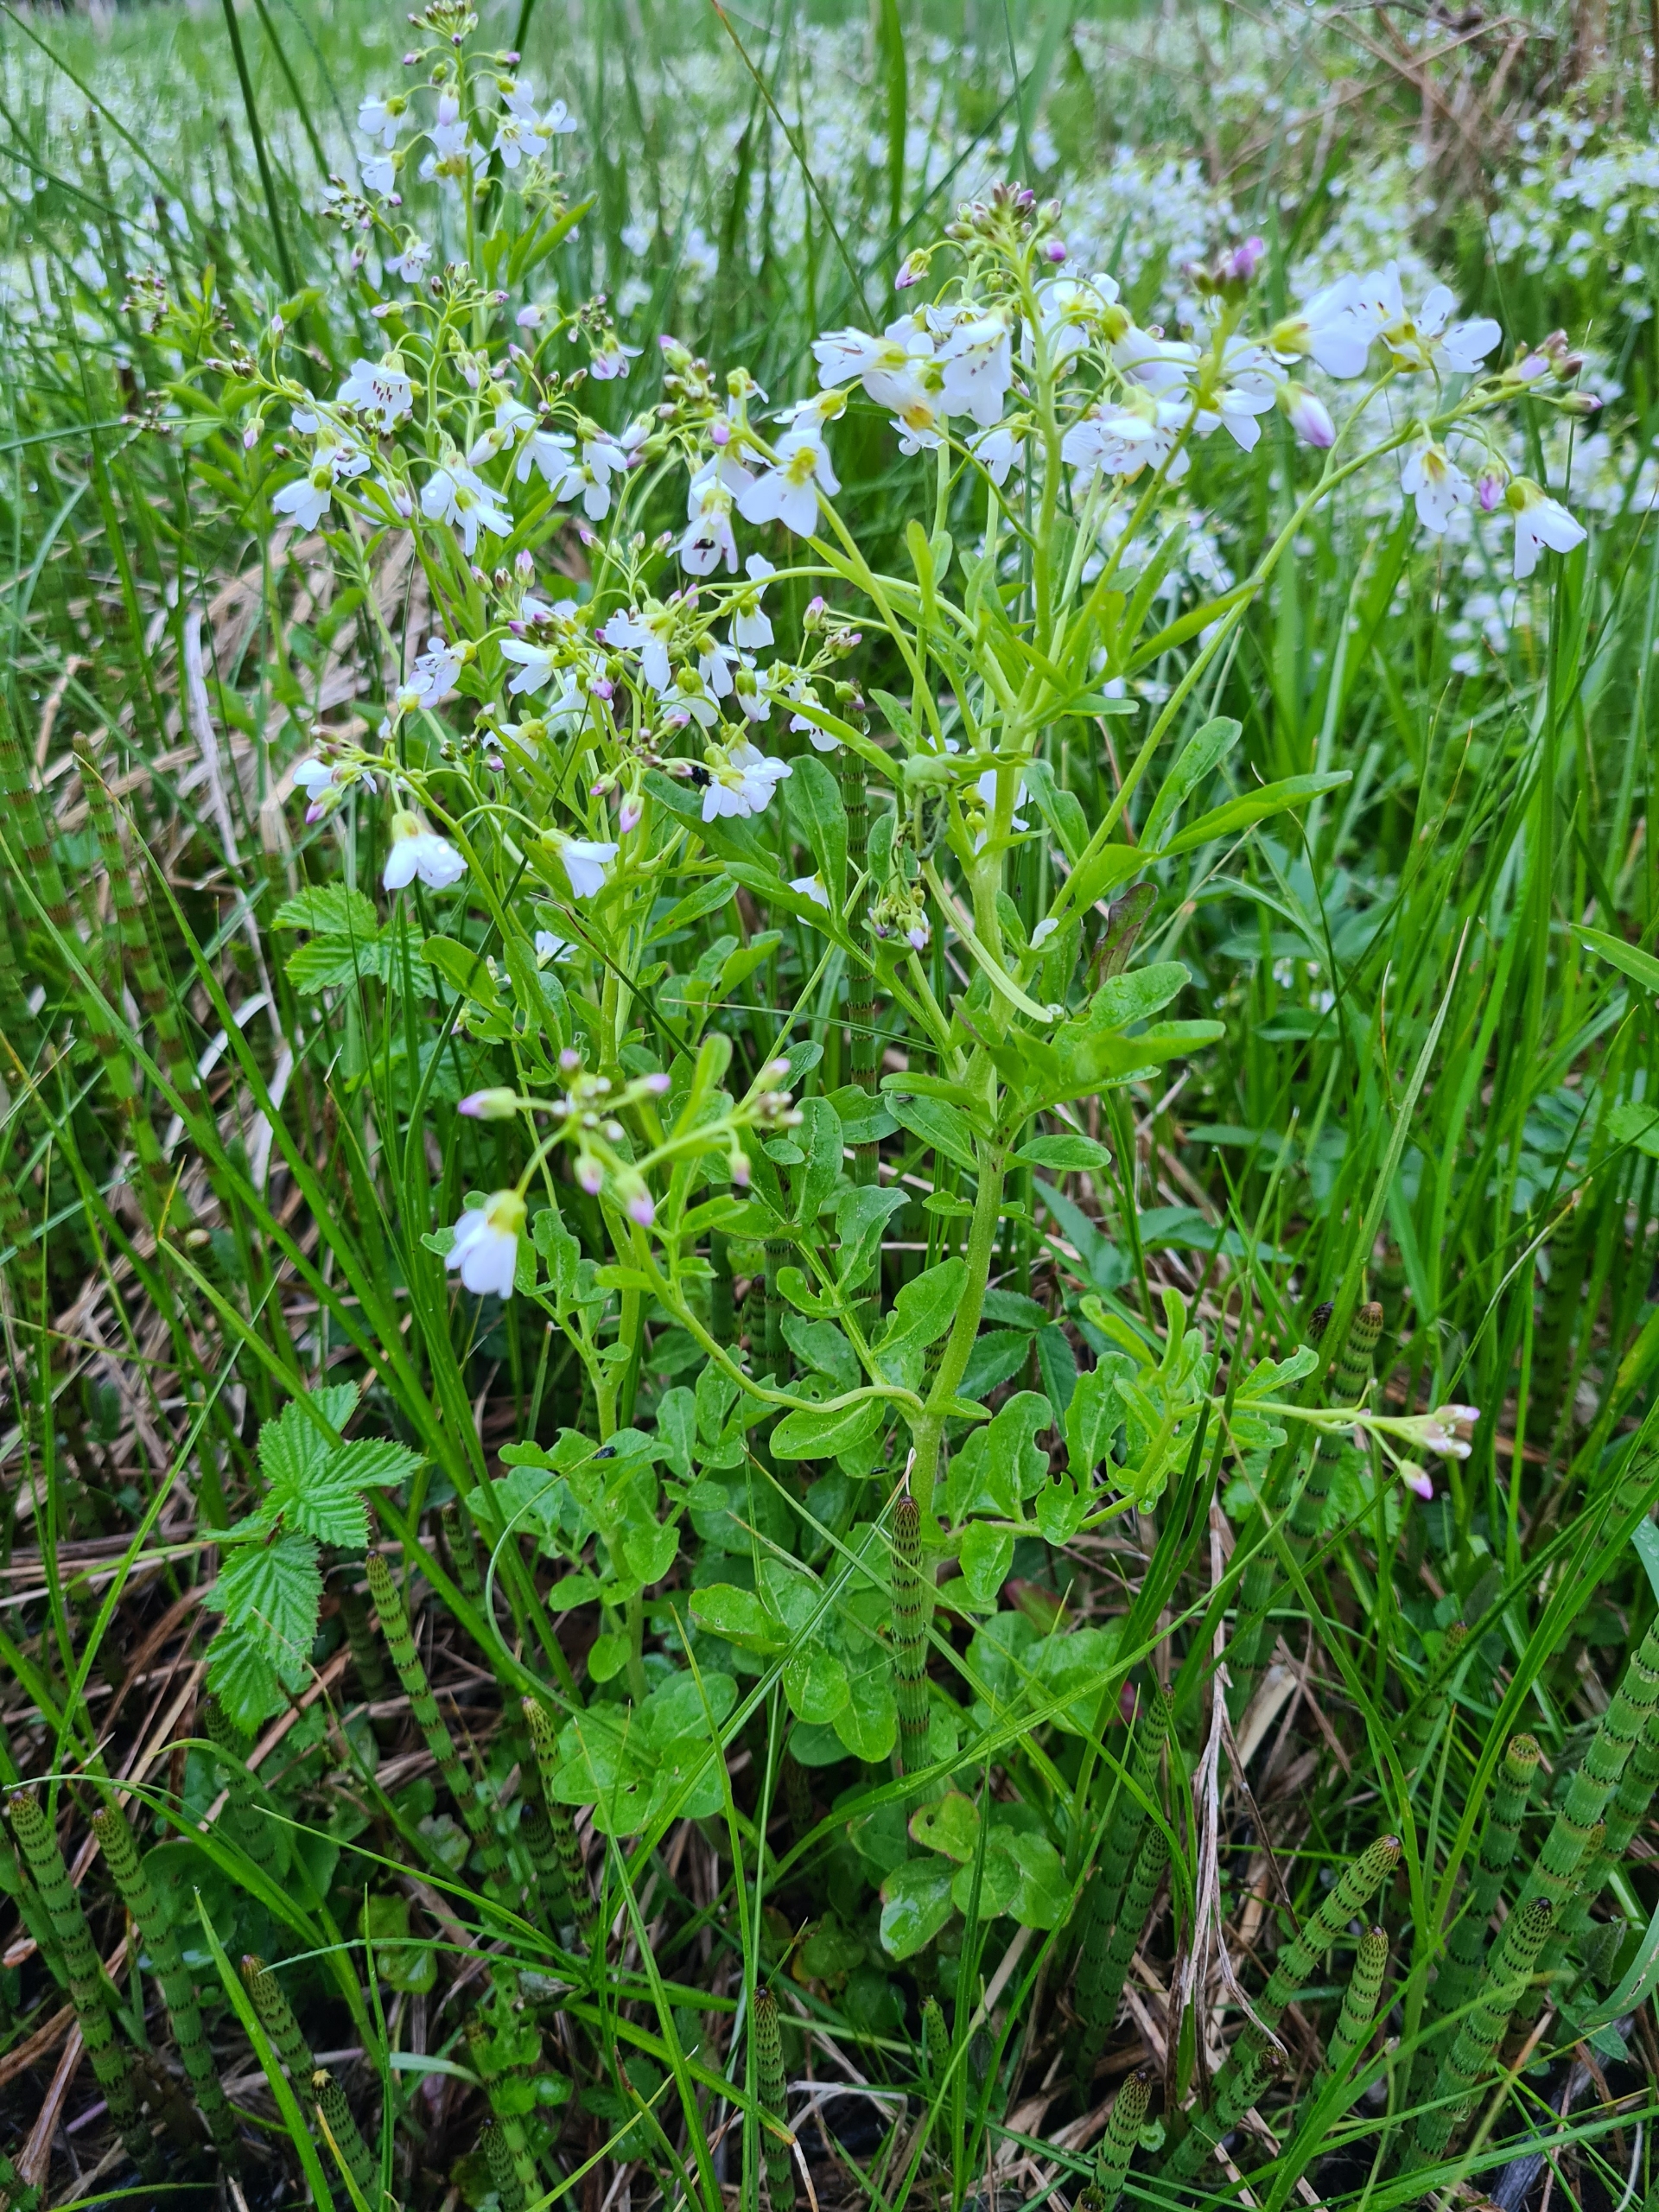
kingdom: Plantae
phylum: Tracheophyta
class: Magnoliopsida
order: Brassicales
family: Brassicaceae
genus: Cardamine
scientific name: Cardamine amara
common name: Vandkarse
